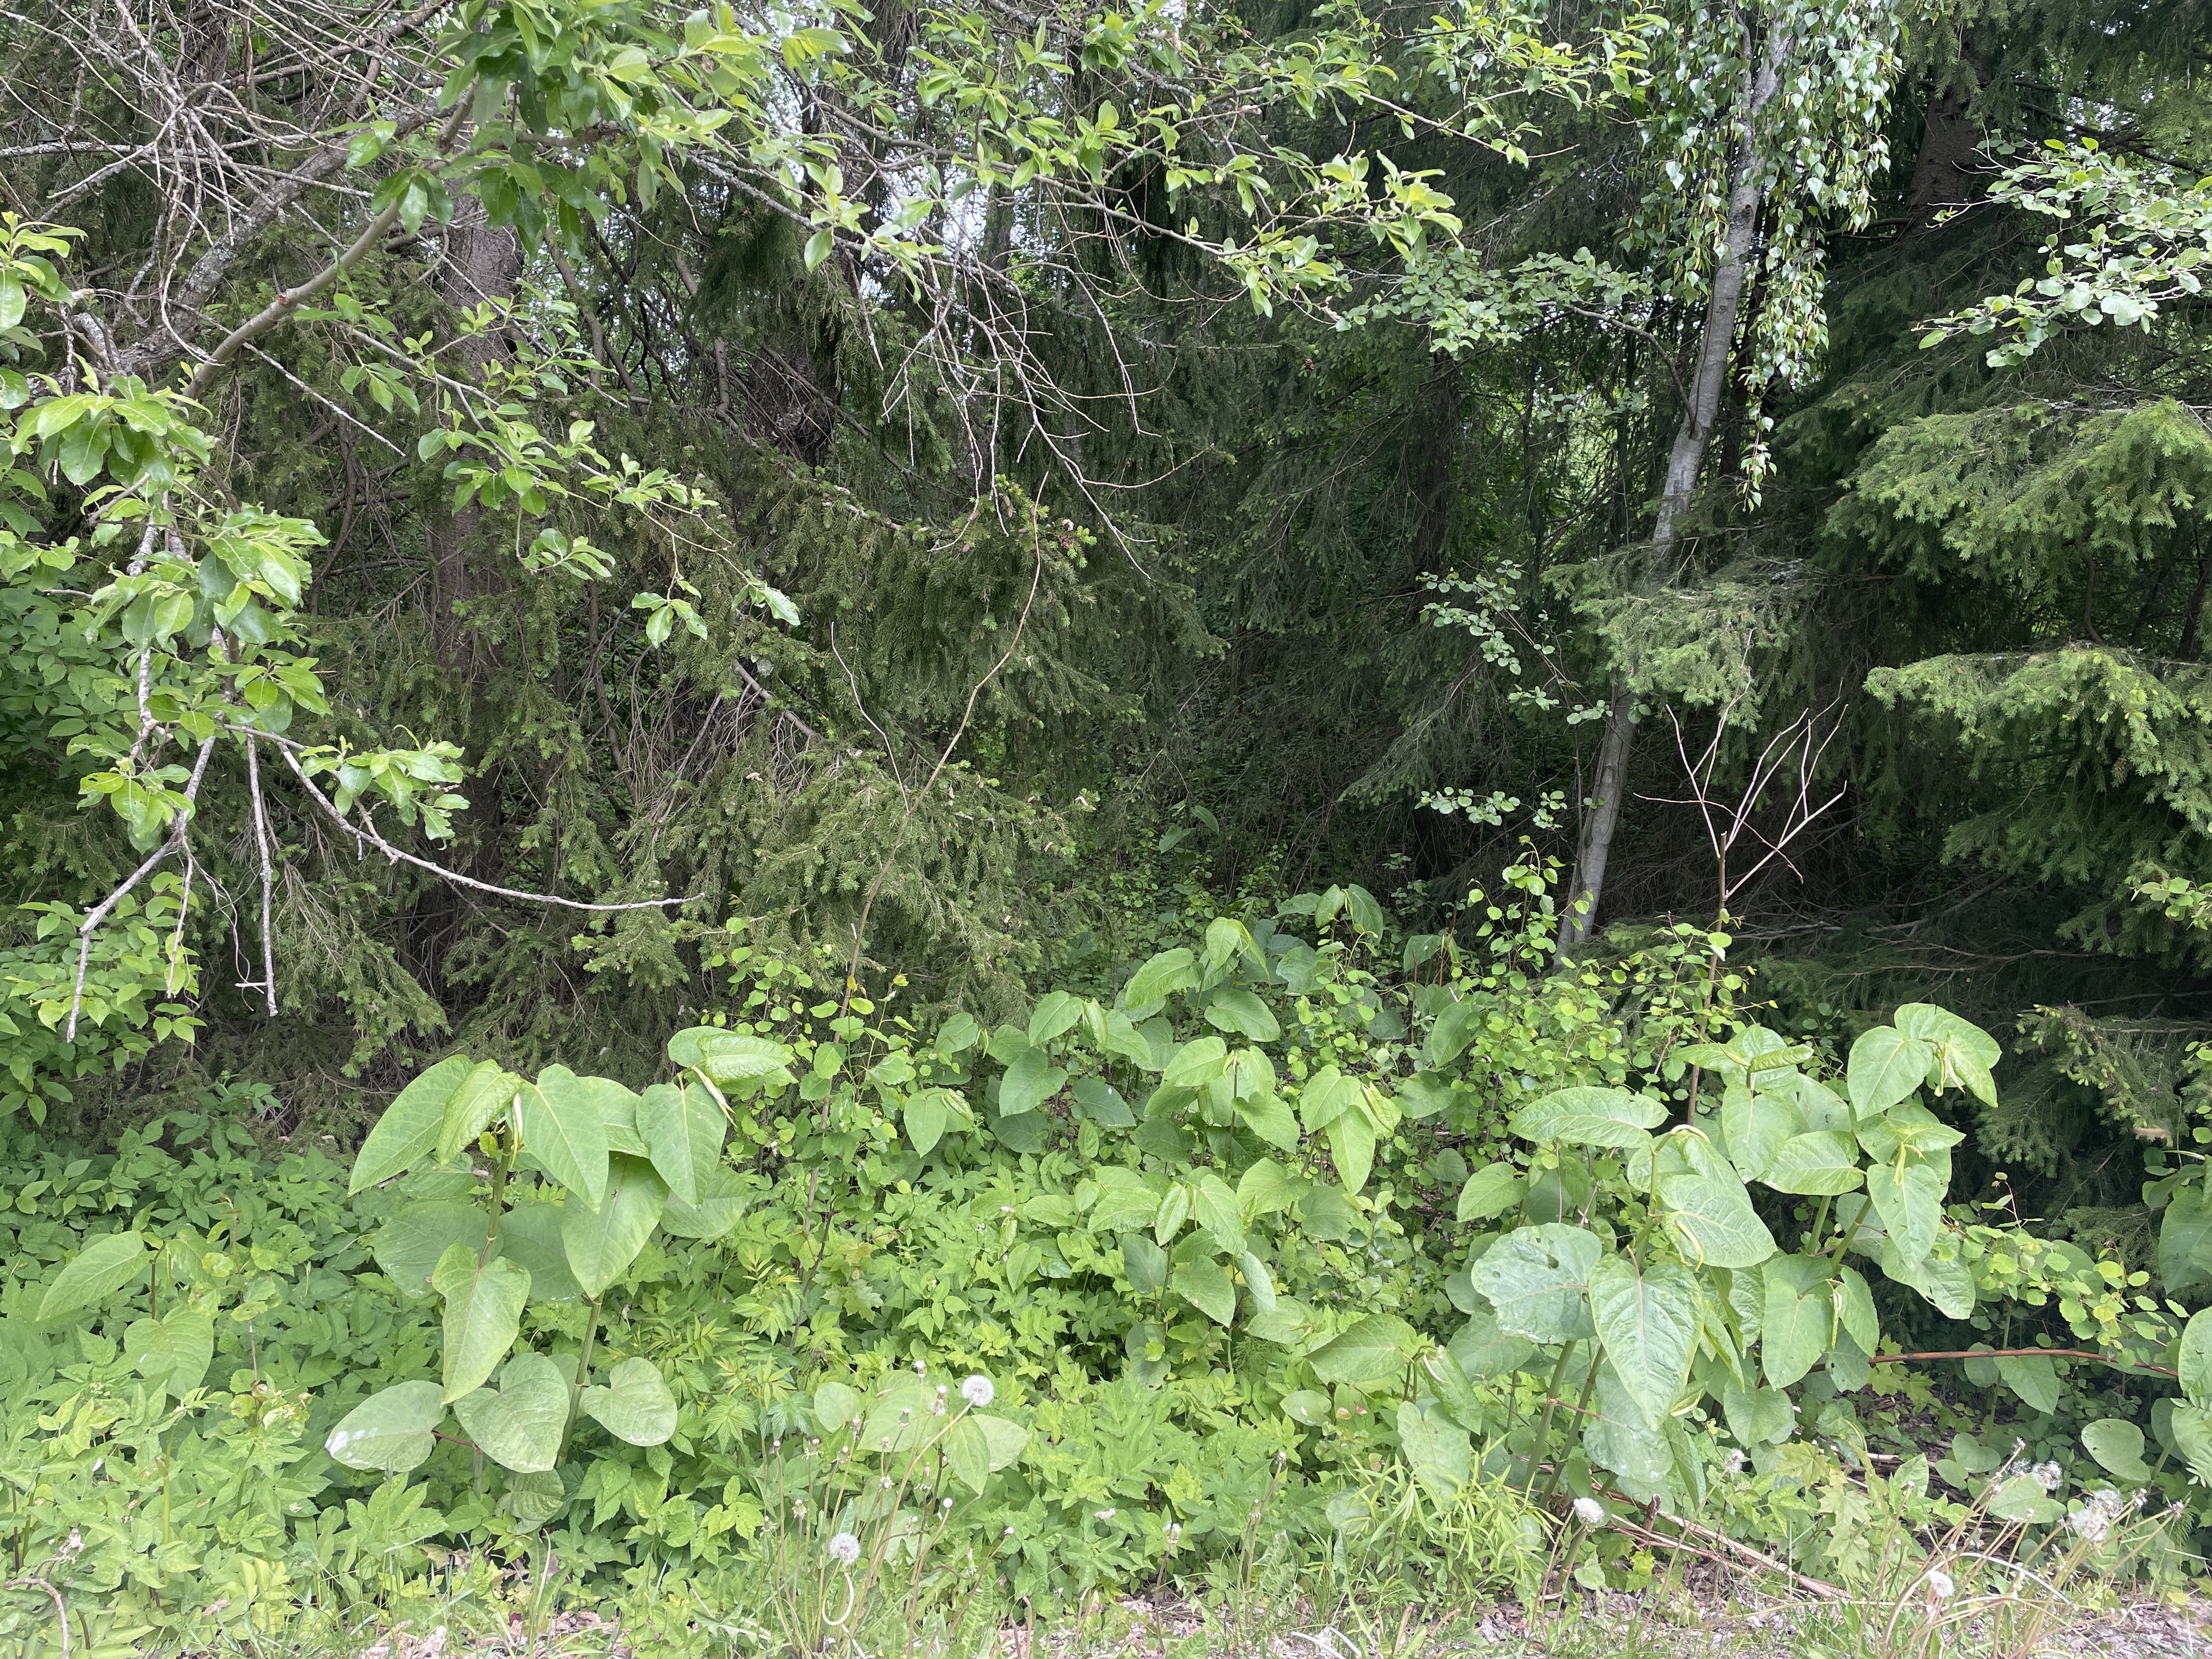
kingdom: Plantae
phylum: Tracheophyta
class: Magnoliopsida
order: Caryophyllales
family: Polygonaceae
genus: Reynoutria
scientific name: Reynoutria japonica
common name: Japanese knotweed
